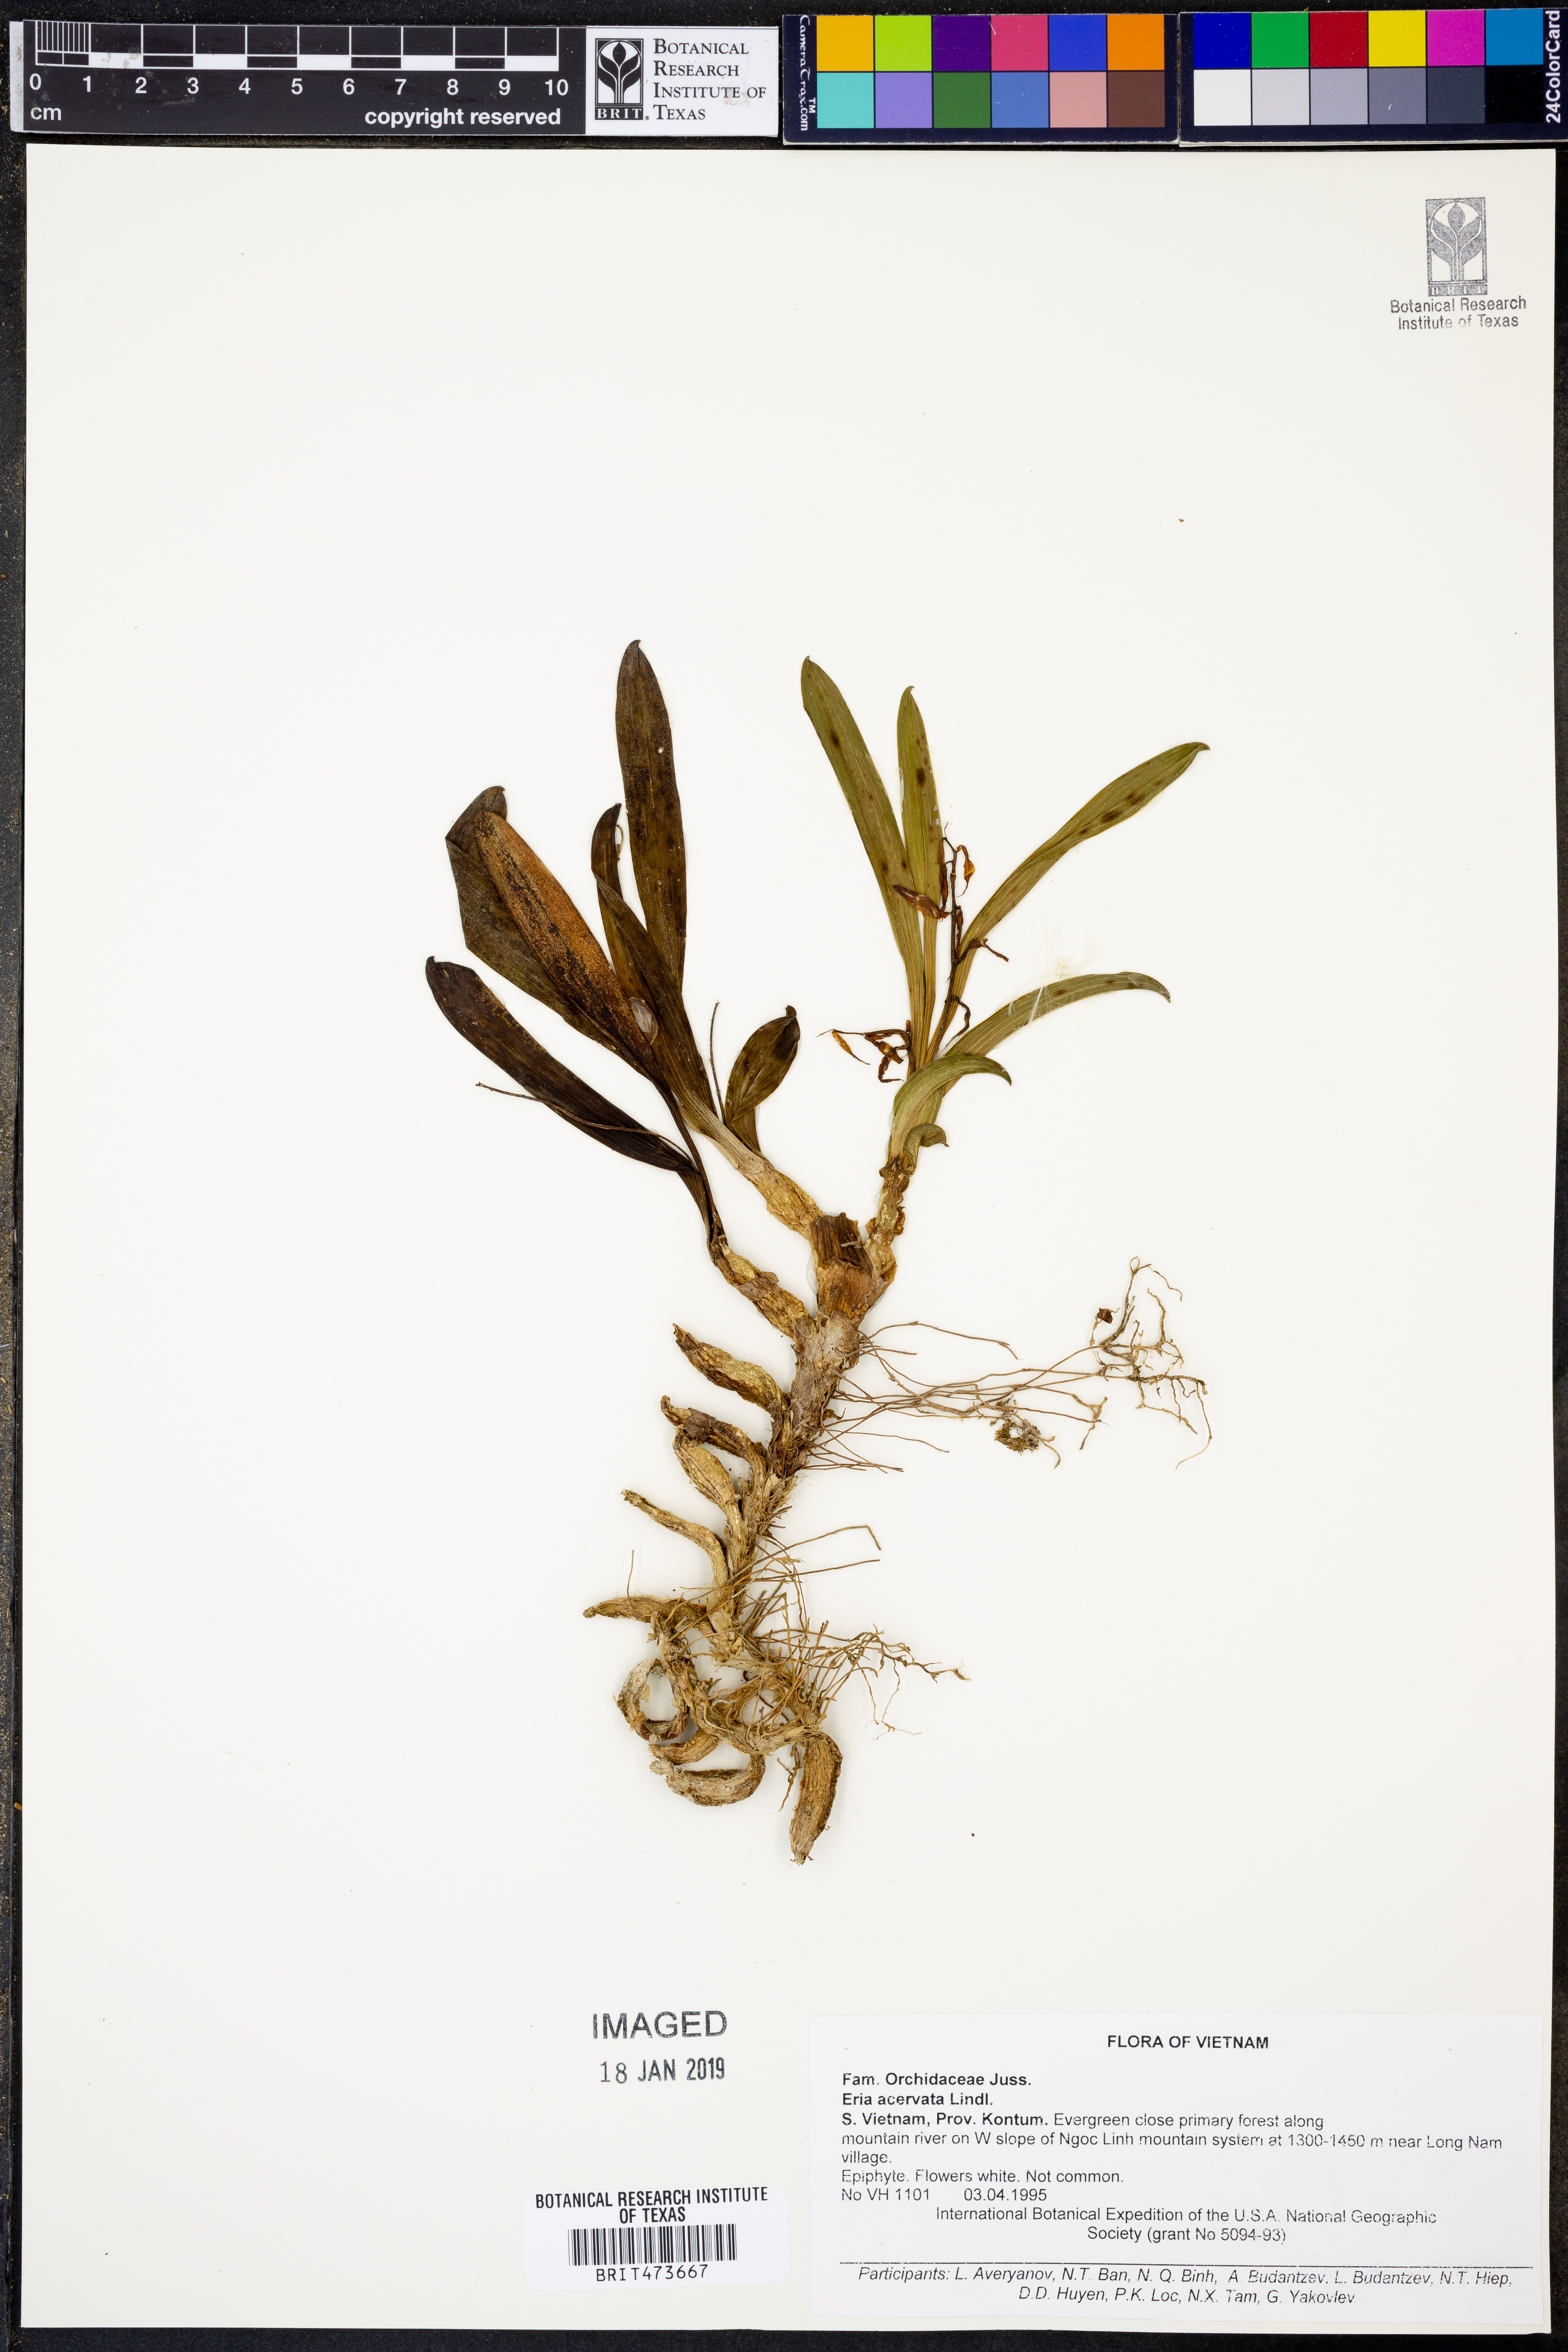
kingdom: Plantae
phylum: Tracheophyta
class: Liliopsida
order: Asparagales
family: Orchidaceae
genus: Pinalia
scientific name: Pinalia acervata
